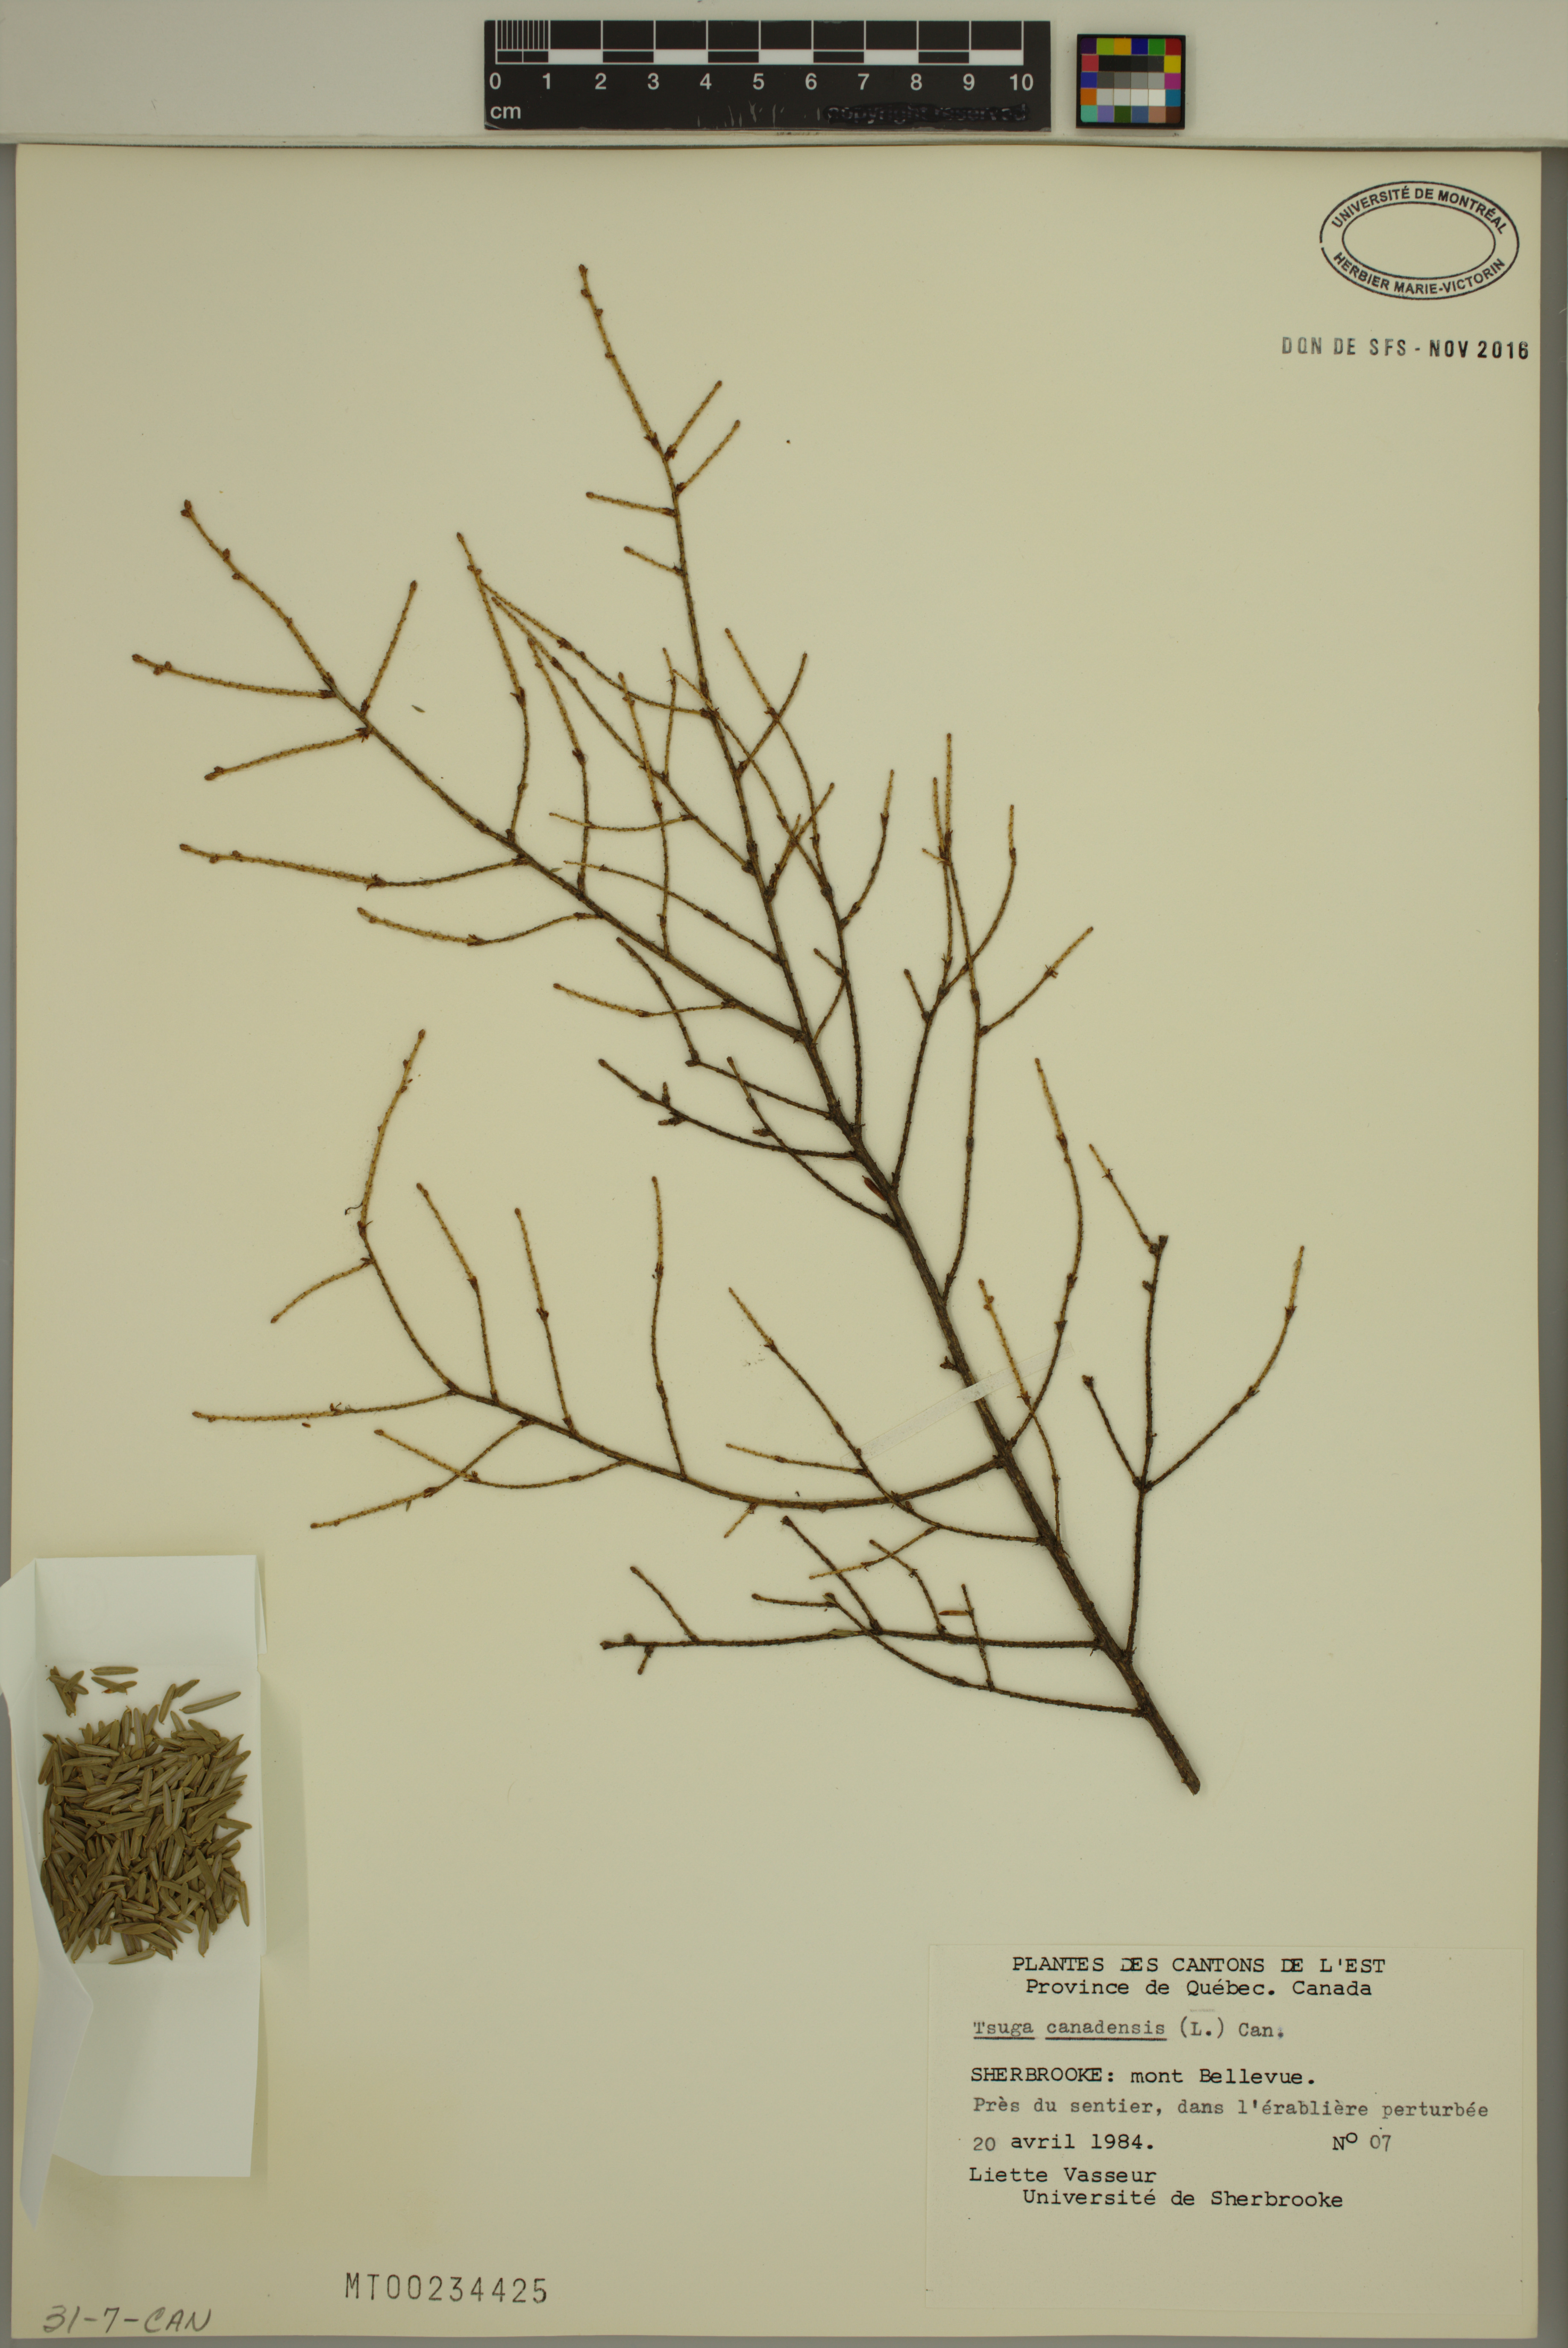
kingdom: Plantae
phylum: Tracheophyta
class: Pinopsida
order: Pinales
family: Pinaceae
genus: Tsuga
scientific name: Tsuga canadensis
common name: Eastern hemlock
